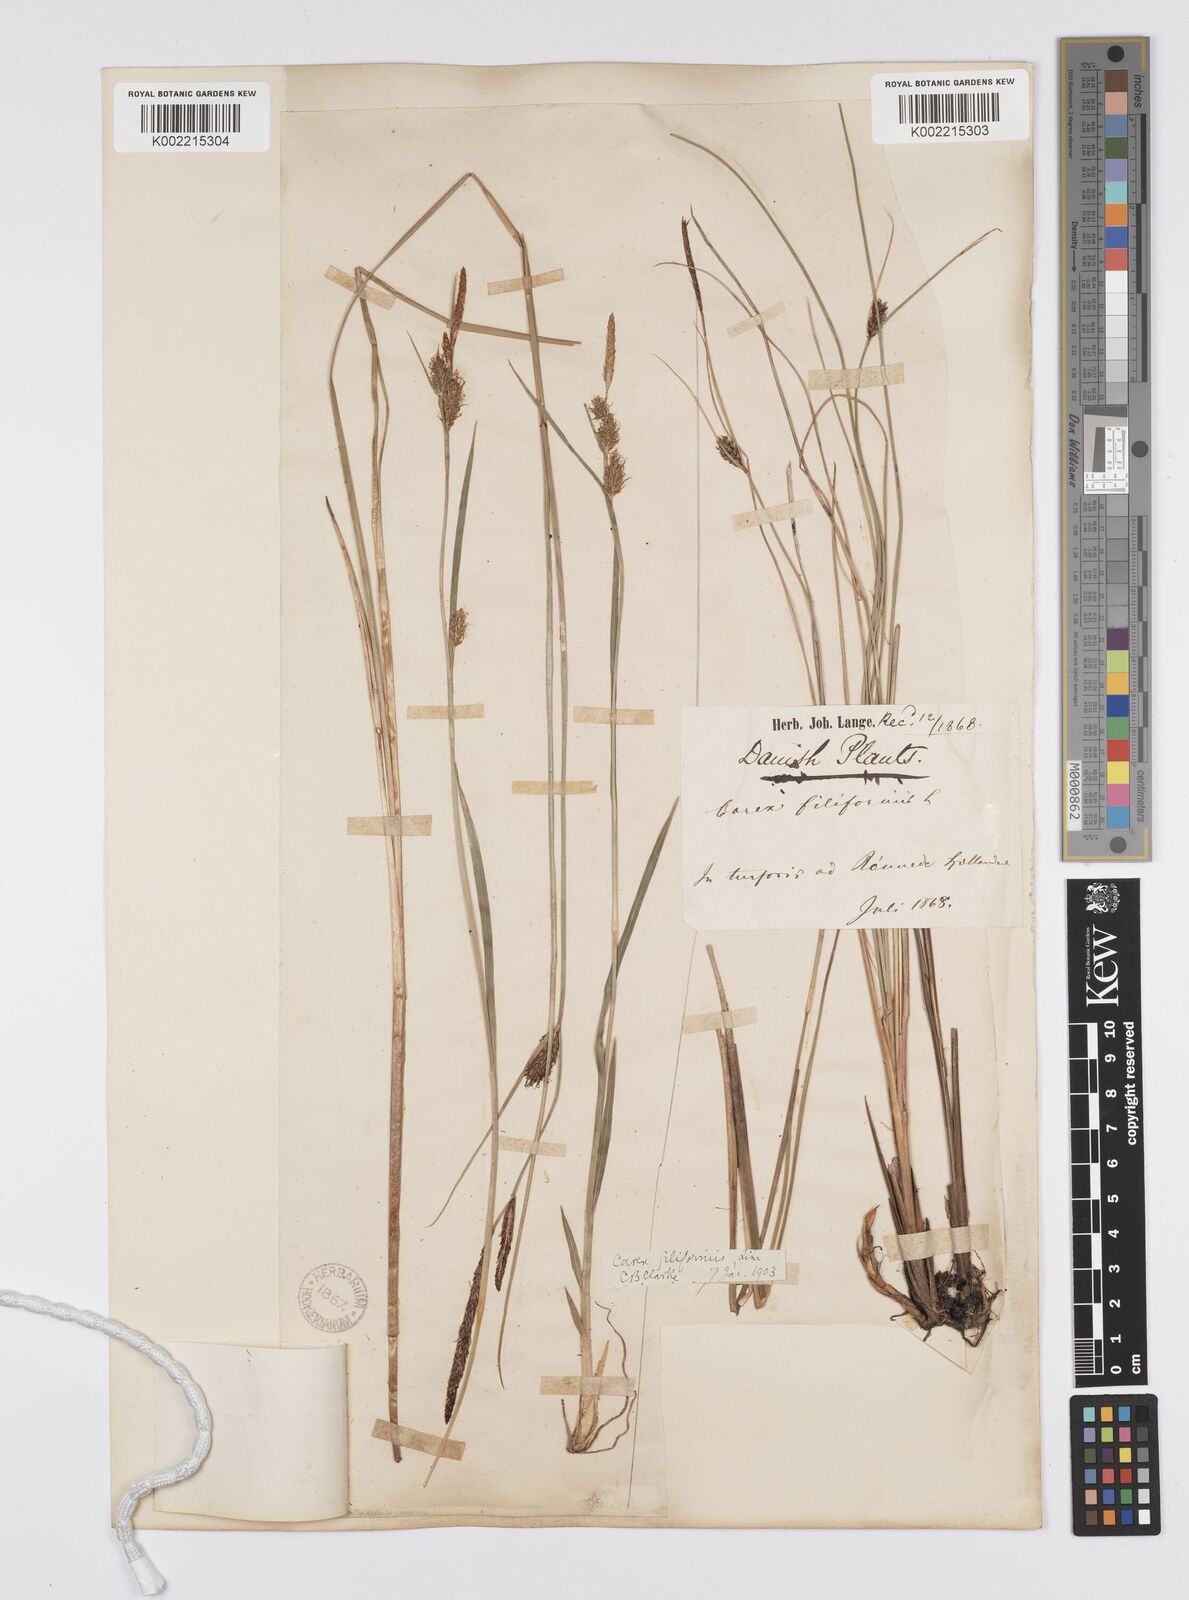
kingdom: Plantae
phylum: Tracheophyta
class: Liliopsida
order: Poales
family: Cyperaceae
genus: Carex
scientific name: Carex lasiocarpa
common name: Slender sedge
